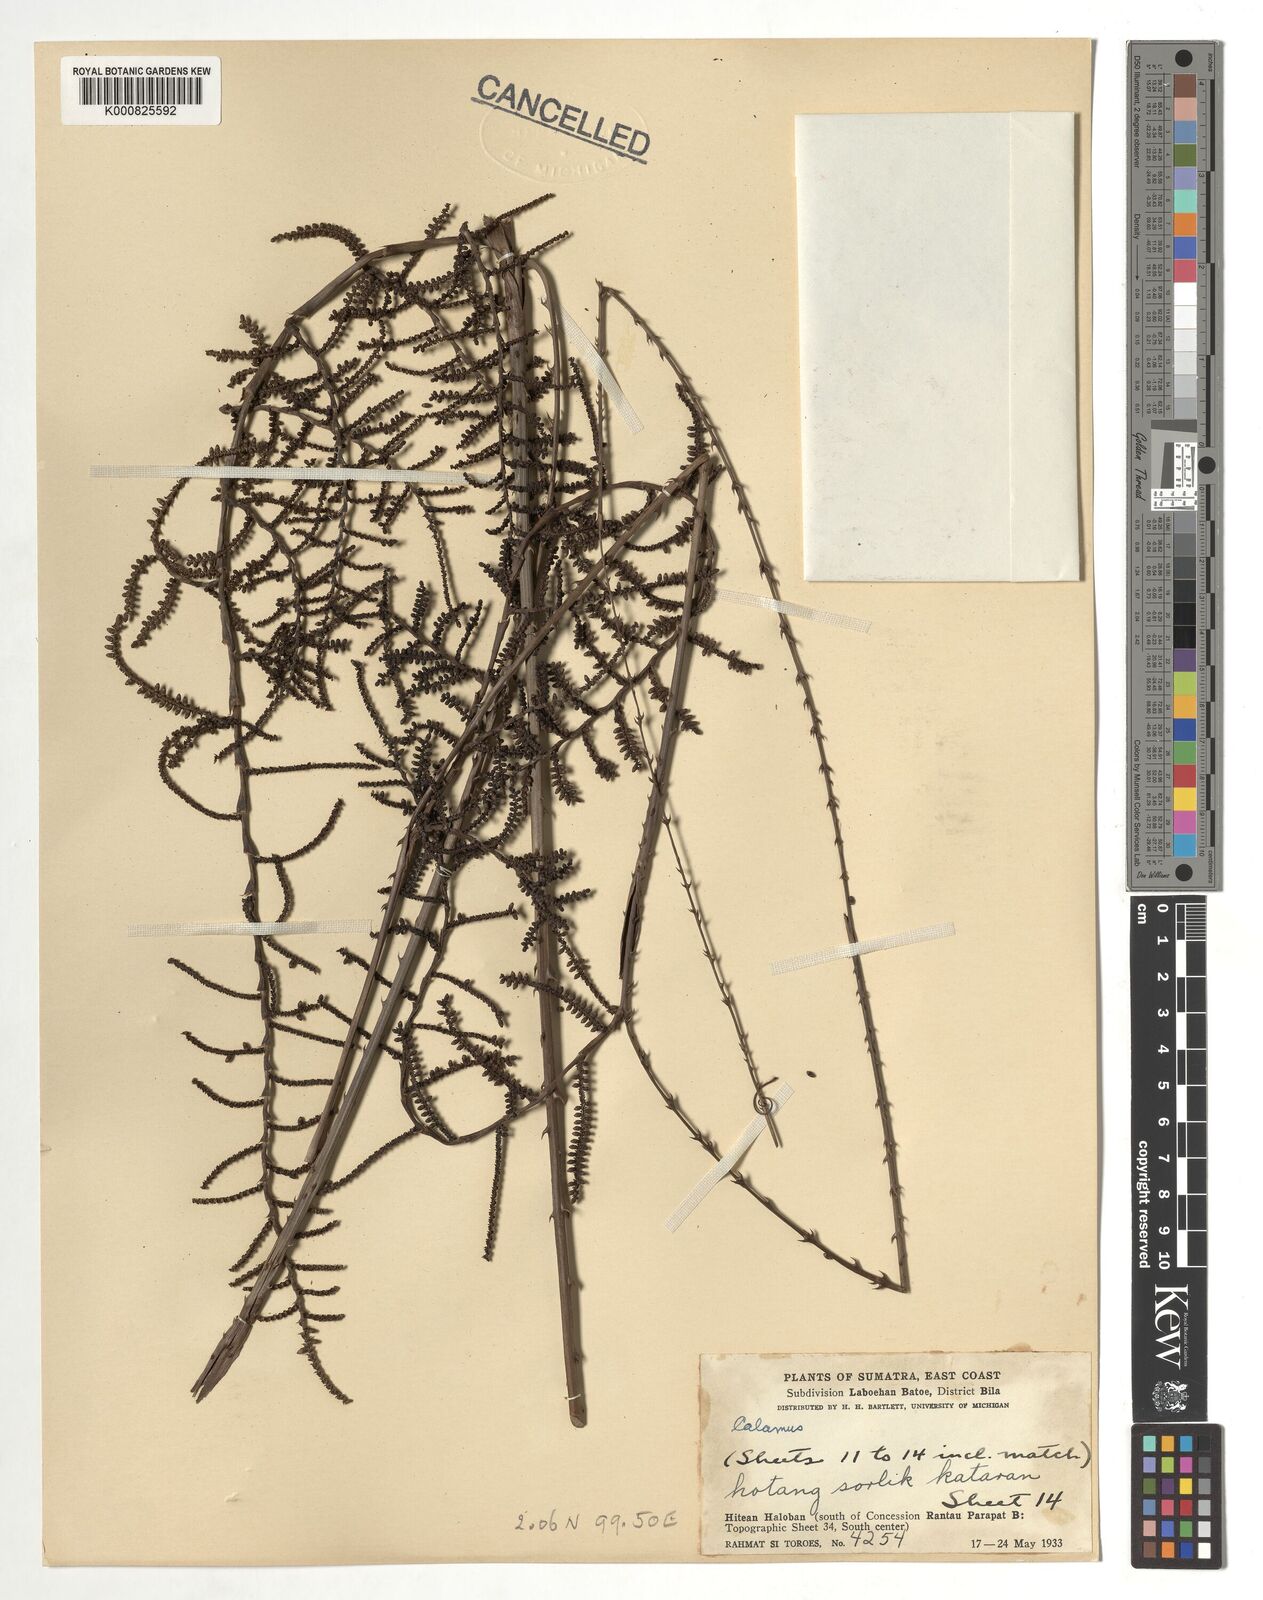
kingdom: Plantae
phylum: Tracheophyta
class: Liliopsida
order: Arecales
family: Arecaceae
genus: Calamus
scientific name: Calamus
